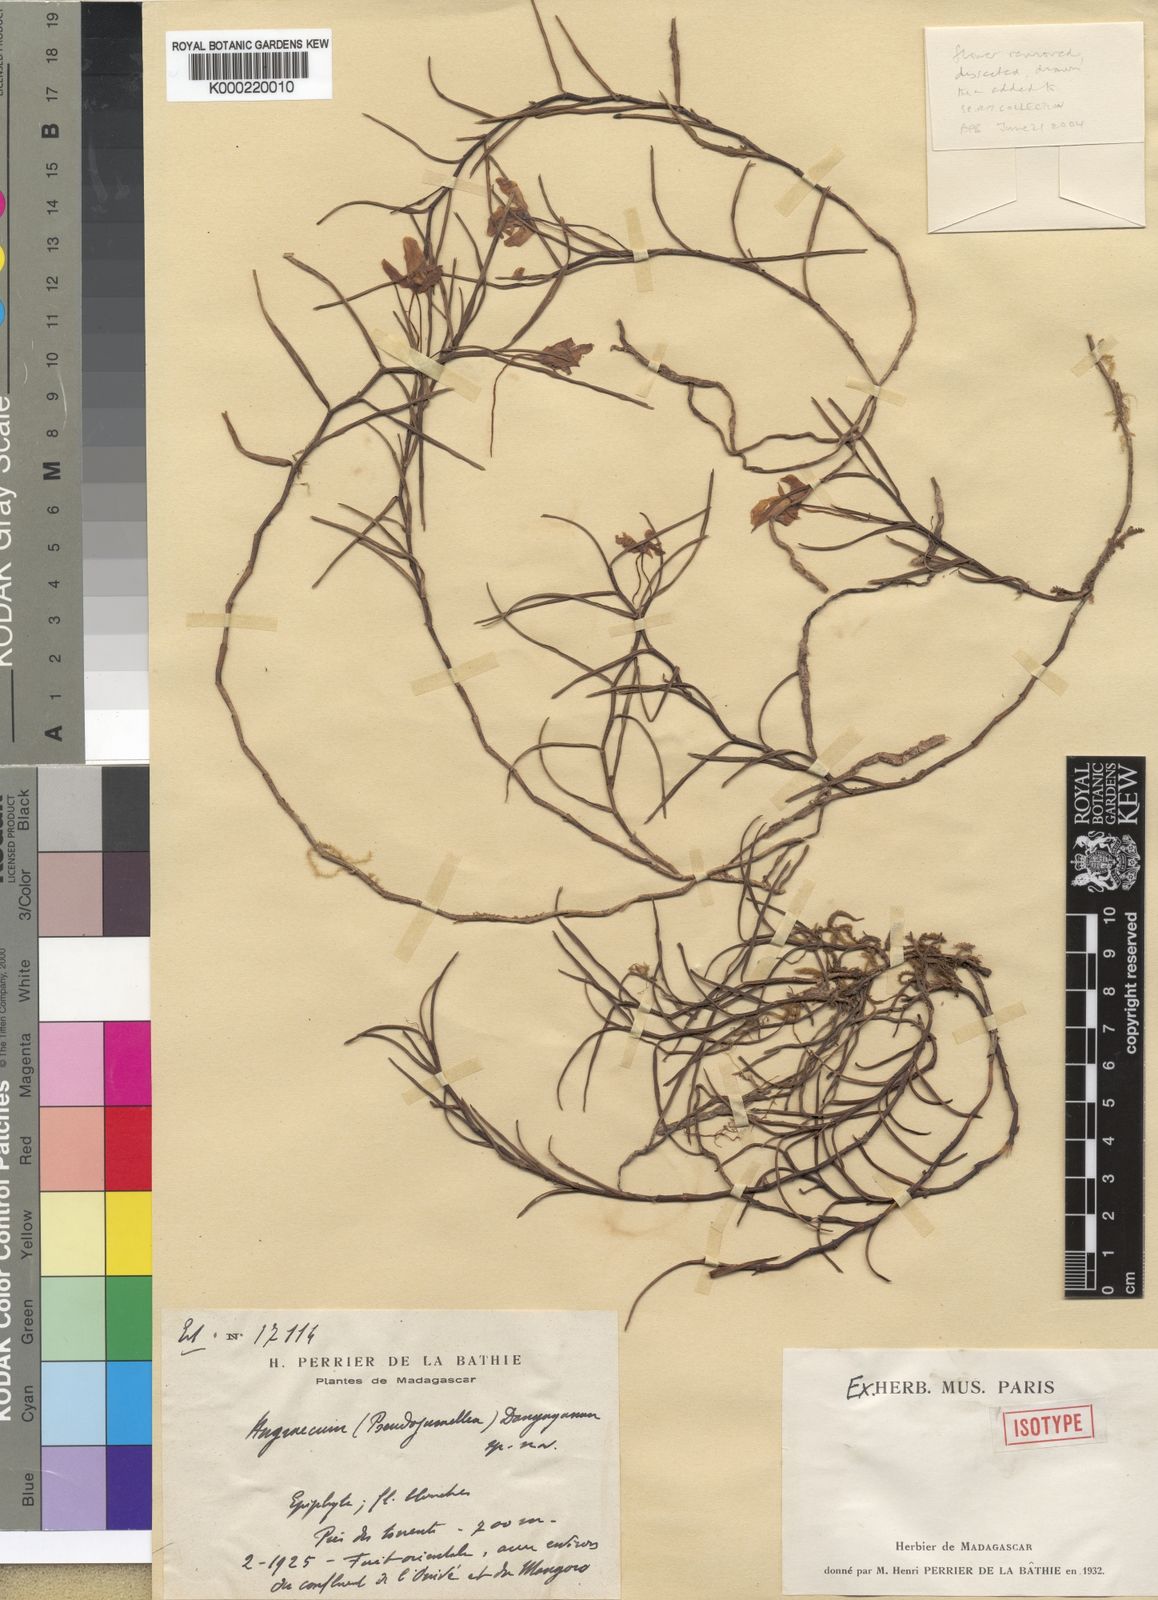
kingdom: Plantae
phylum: Tracheophyta
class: Liliopsida
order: Asparagales
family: Orchidaceae
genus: Angraecum
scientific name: Angraecum danguyanum
